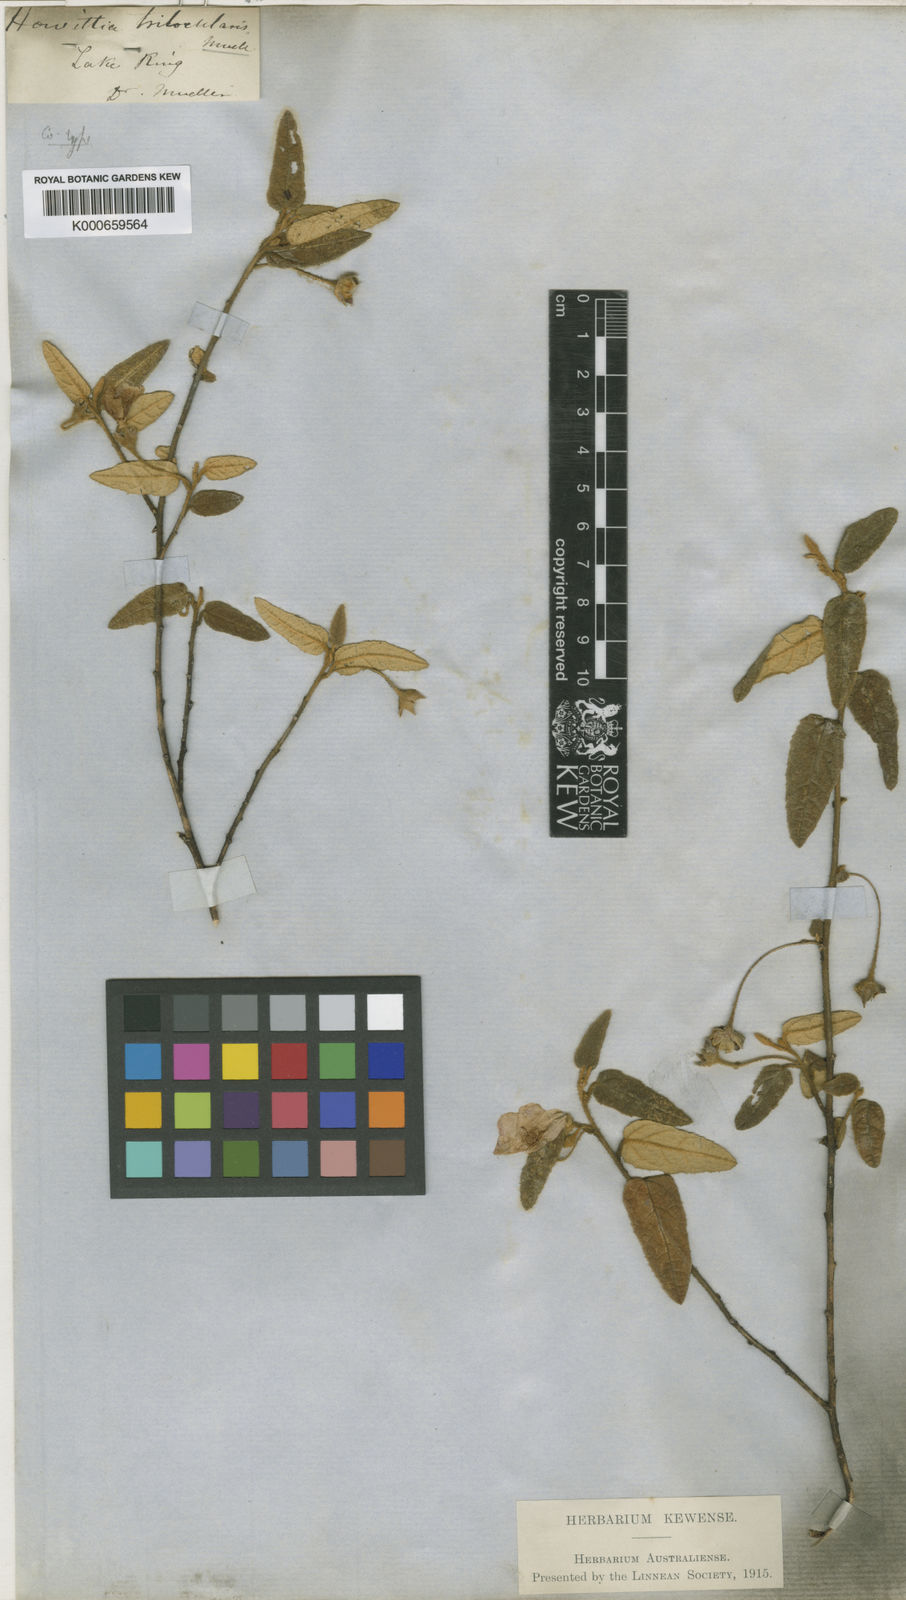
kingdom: Plantae
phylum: Tracheophyta
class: Magnoliopsida
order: Malvales
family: Malvaceae
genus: Howittia
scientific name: Howittia trilocularis
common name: Blue howittia
